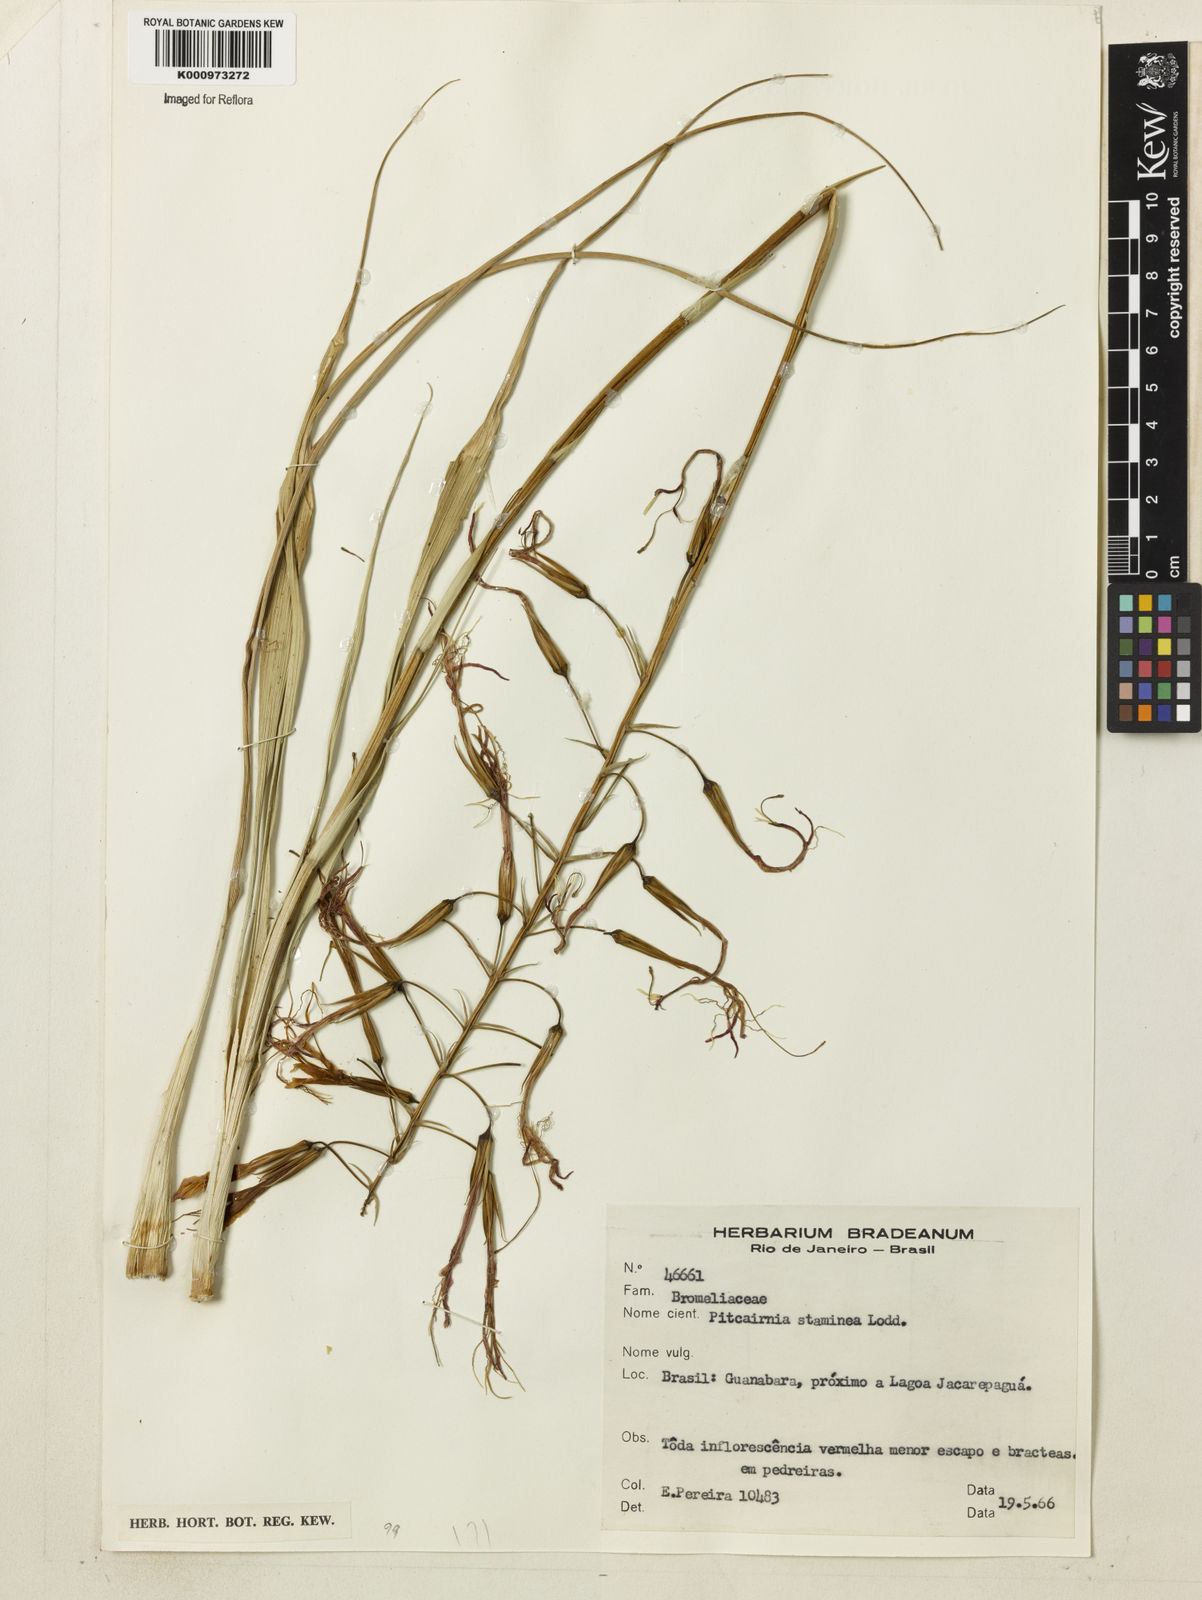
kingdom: Plantae
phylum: Tracheophyta
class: Liliopsida
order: Poales
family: Bromeliaceae
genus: Pitcairnia
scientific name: Pitcairnia staminea
